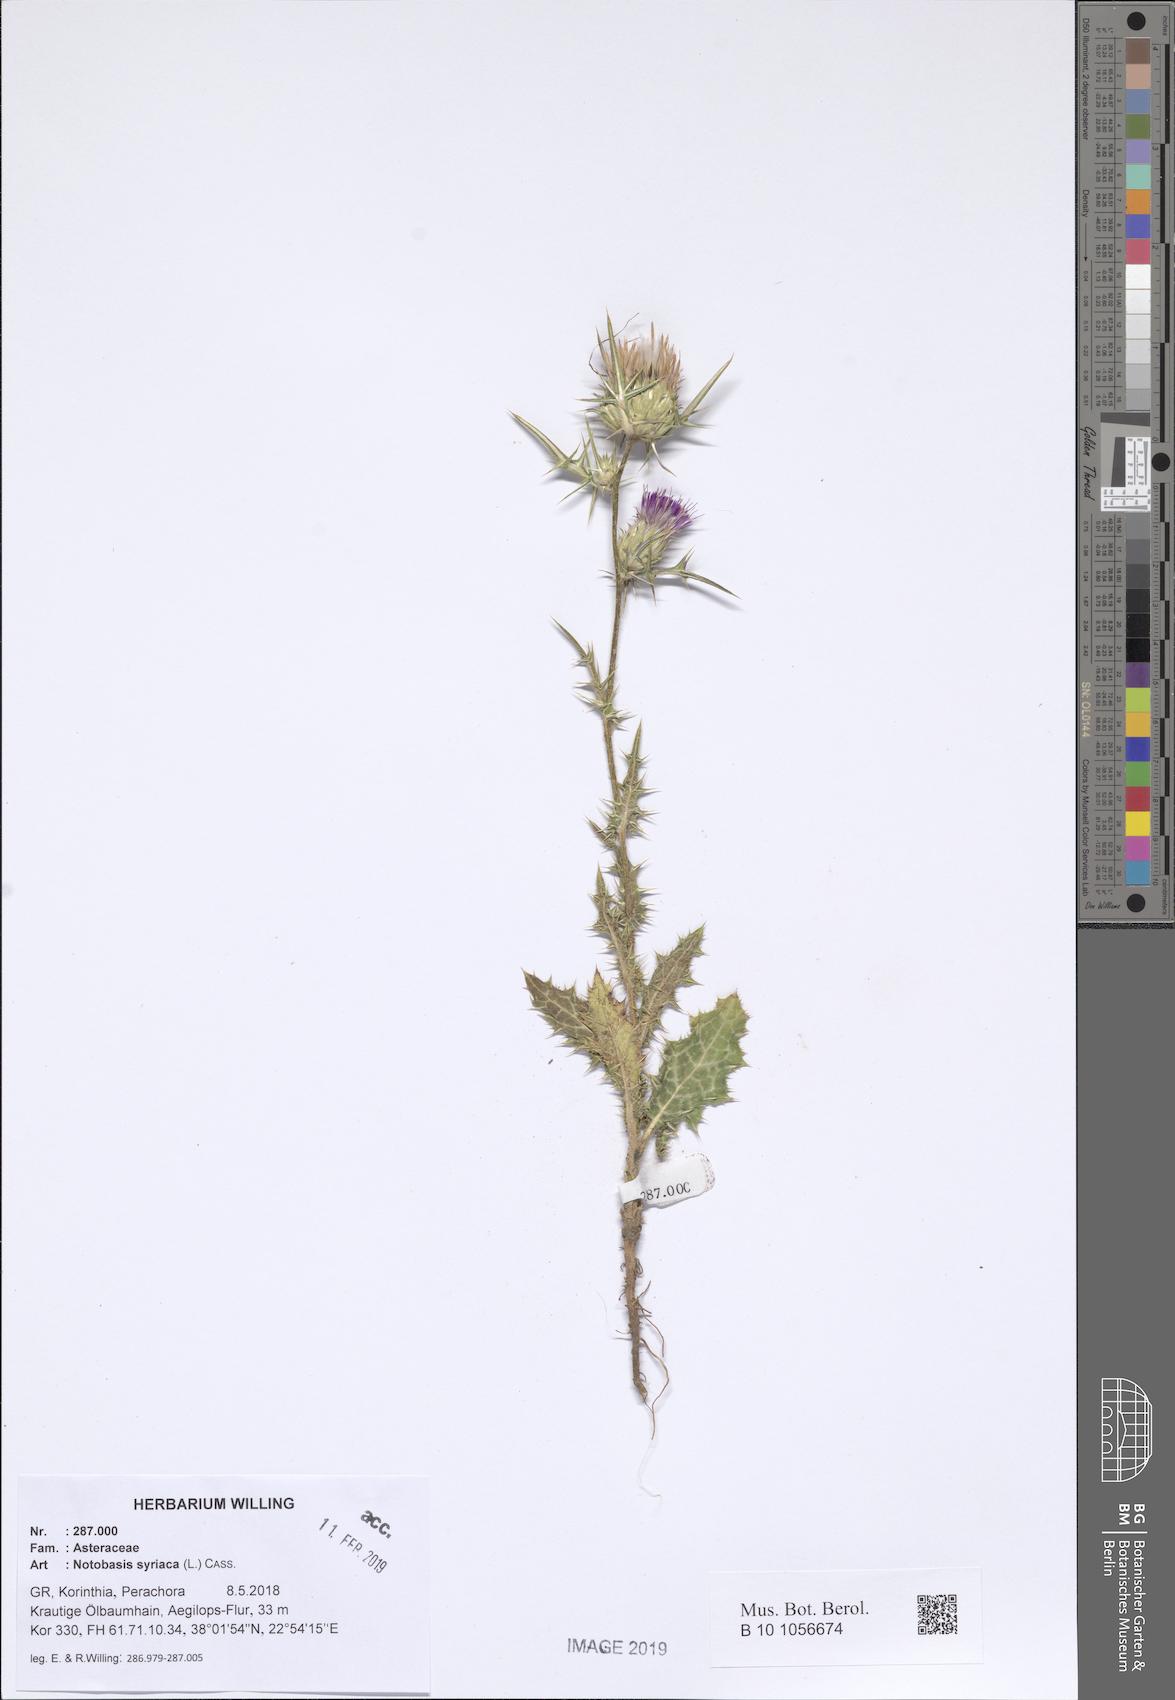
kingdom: Plantae
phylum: Tracheophyta
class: Magnoliopsida
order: Asterales
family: Asteraceae
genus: Notobasis
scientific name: Notobasis syriaca
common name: Syrian thistle
